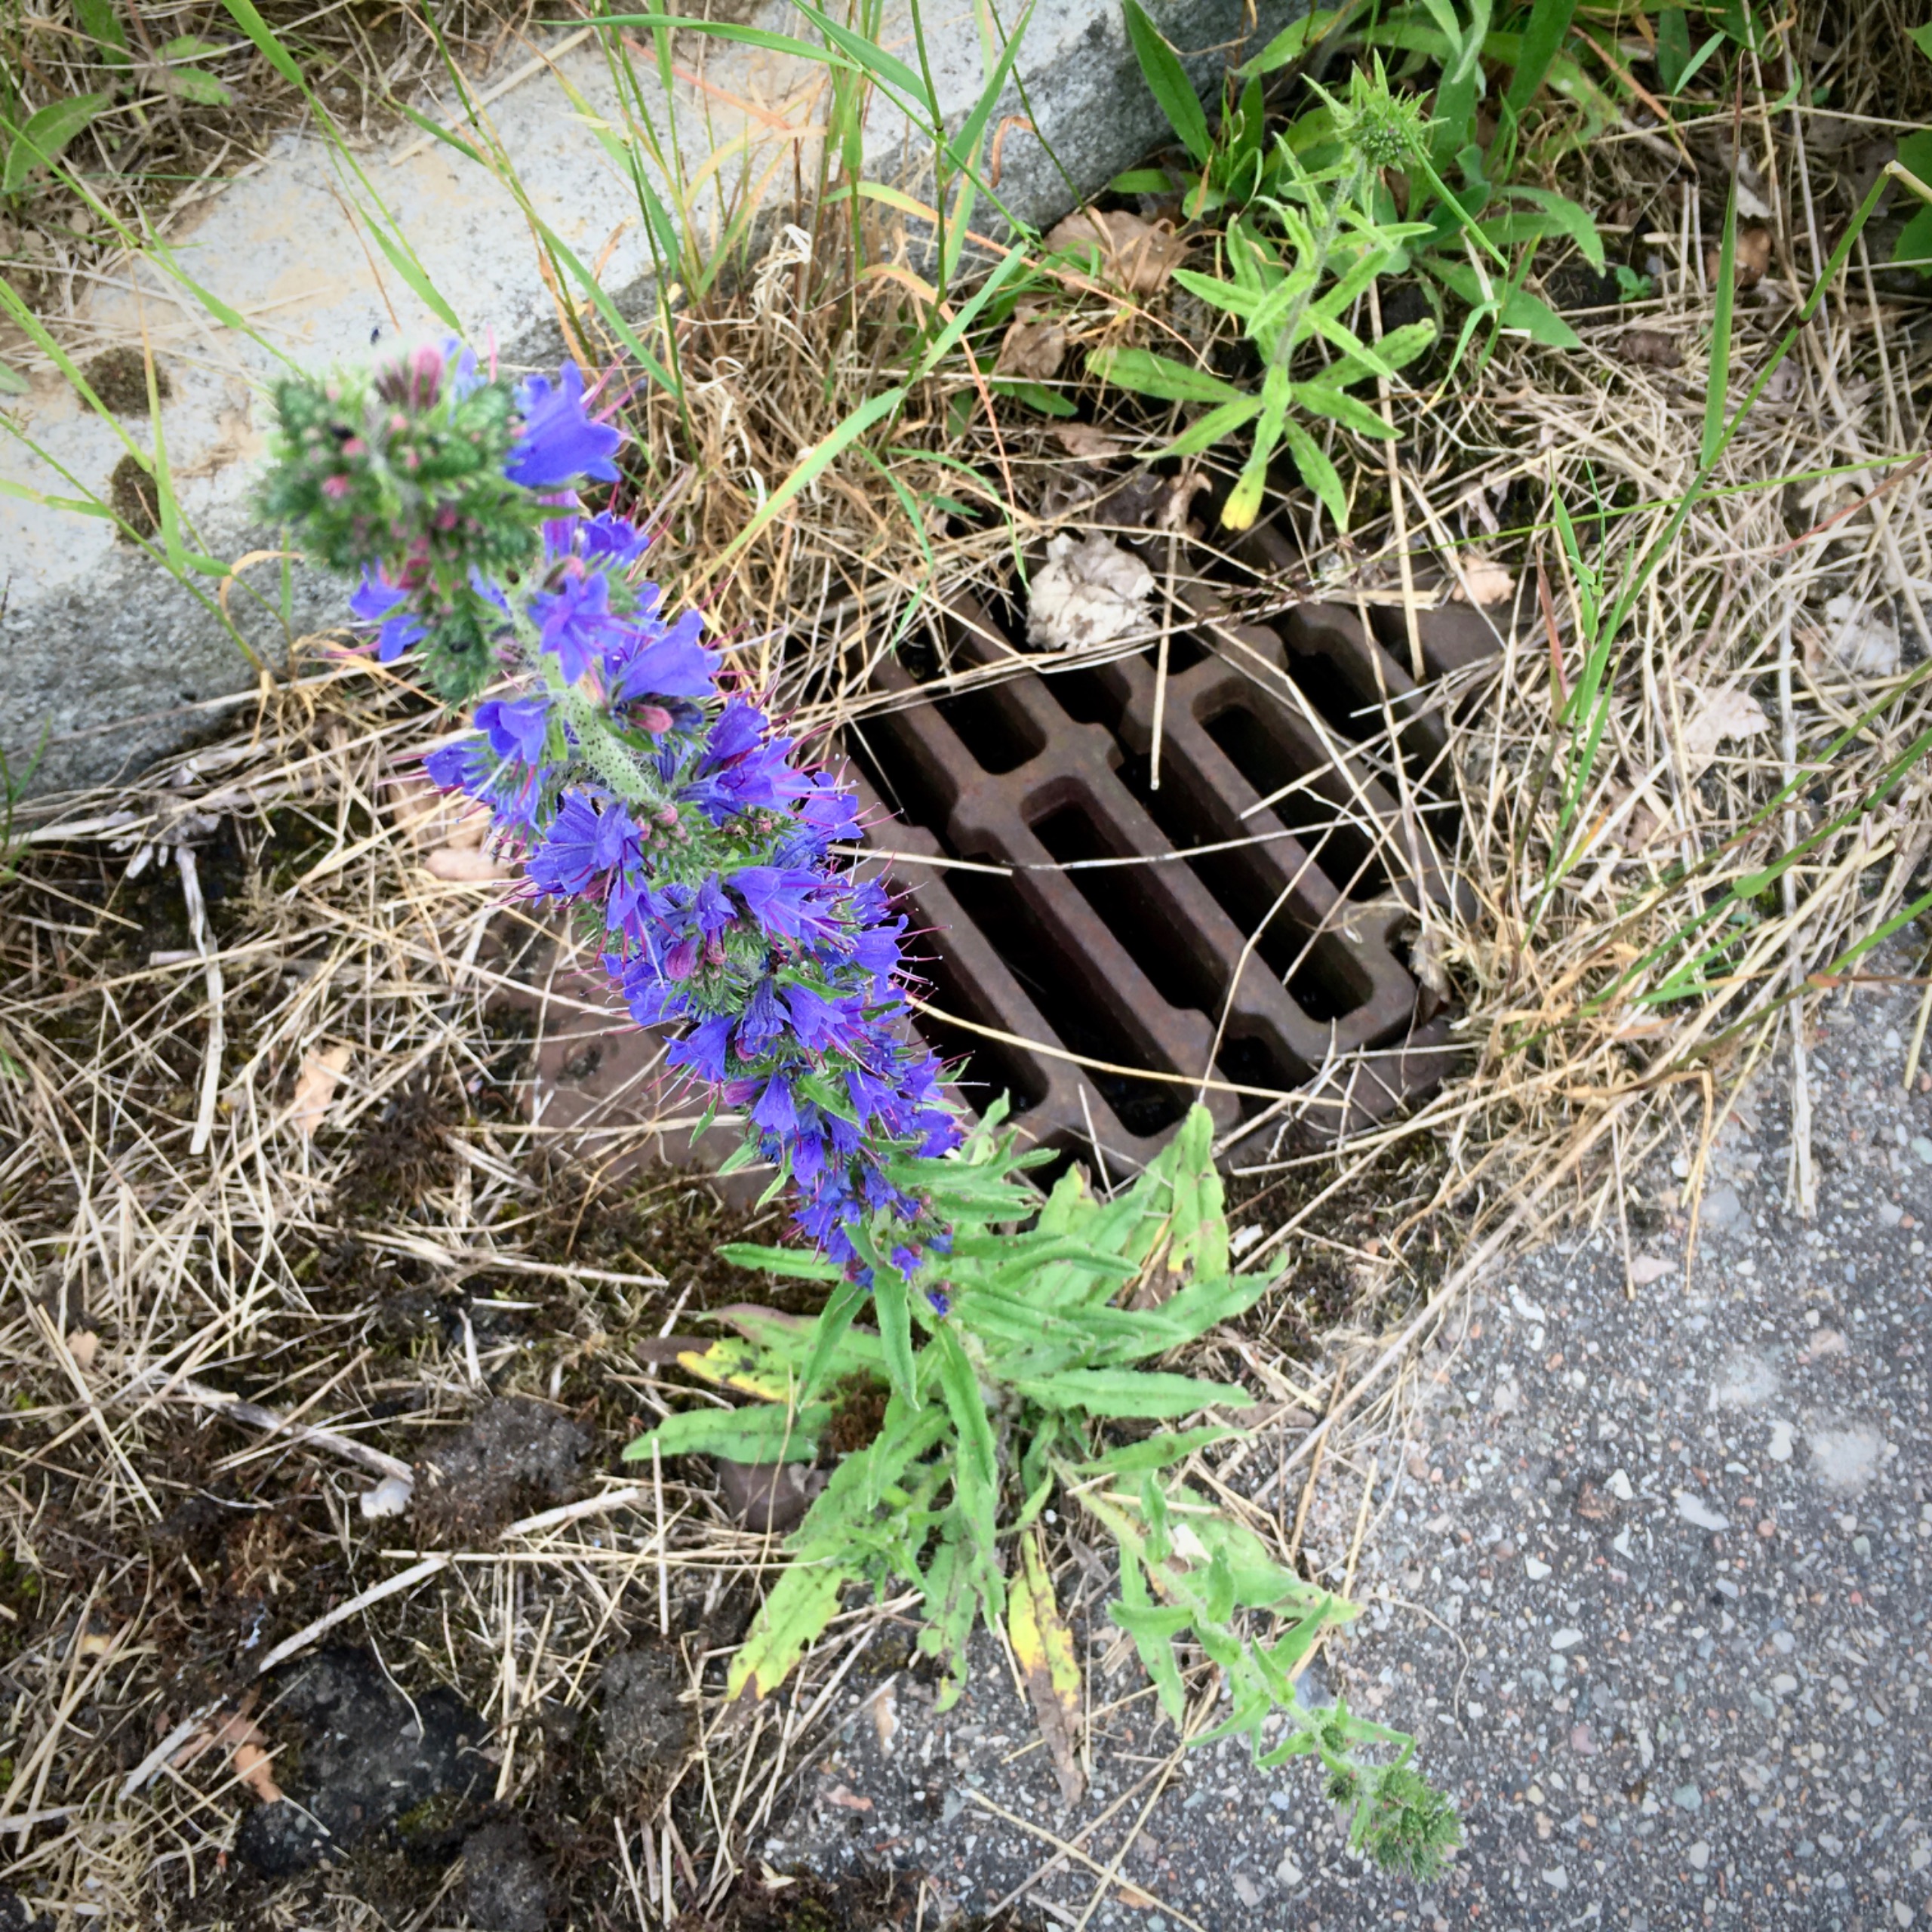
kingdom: Plantae
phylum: Tracheophyta
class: Magnoliopsida
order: Boraginales
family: Boraginaceae
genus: Echium
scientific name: Echium vulgare
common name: Slangehoved
